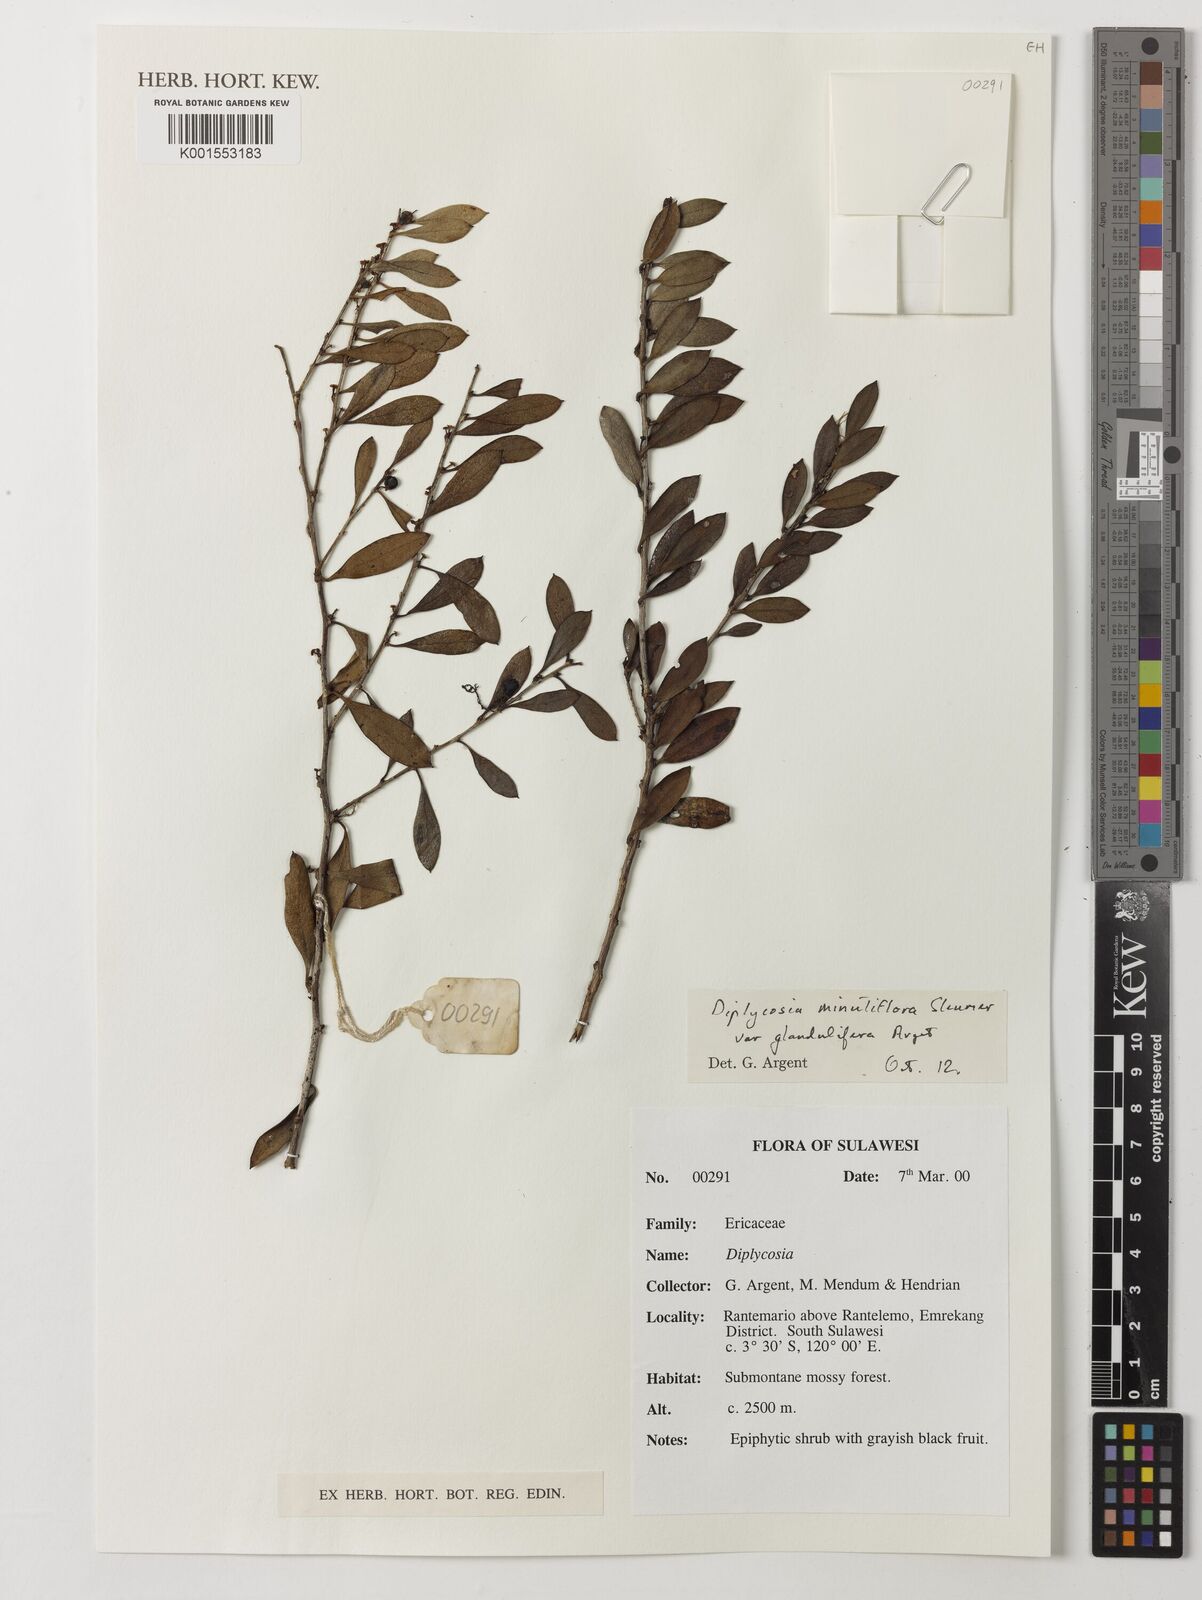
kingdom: Plantae
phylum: Tracheophyta
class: Magnoliopsida
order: Ericales
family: Ericaceae
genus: Gaultheria
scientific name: Gaultheria
